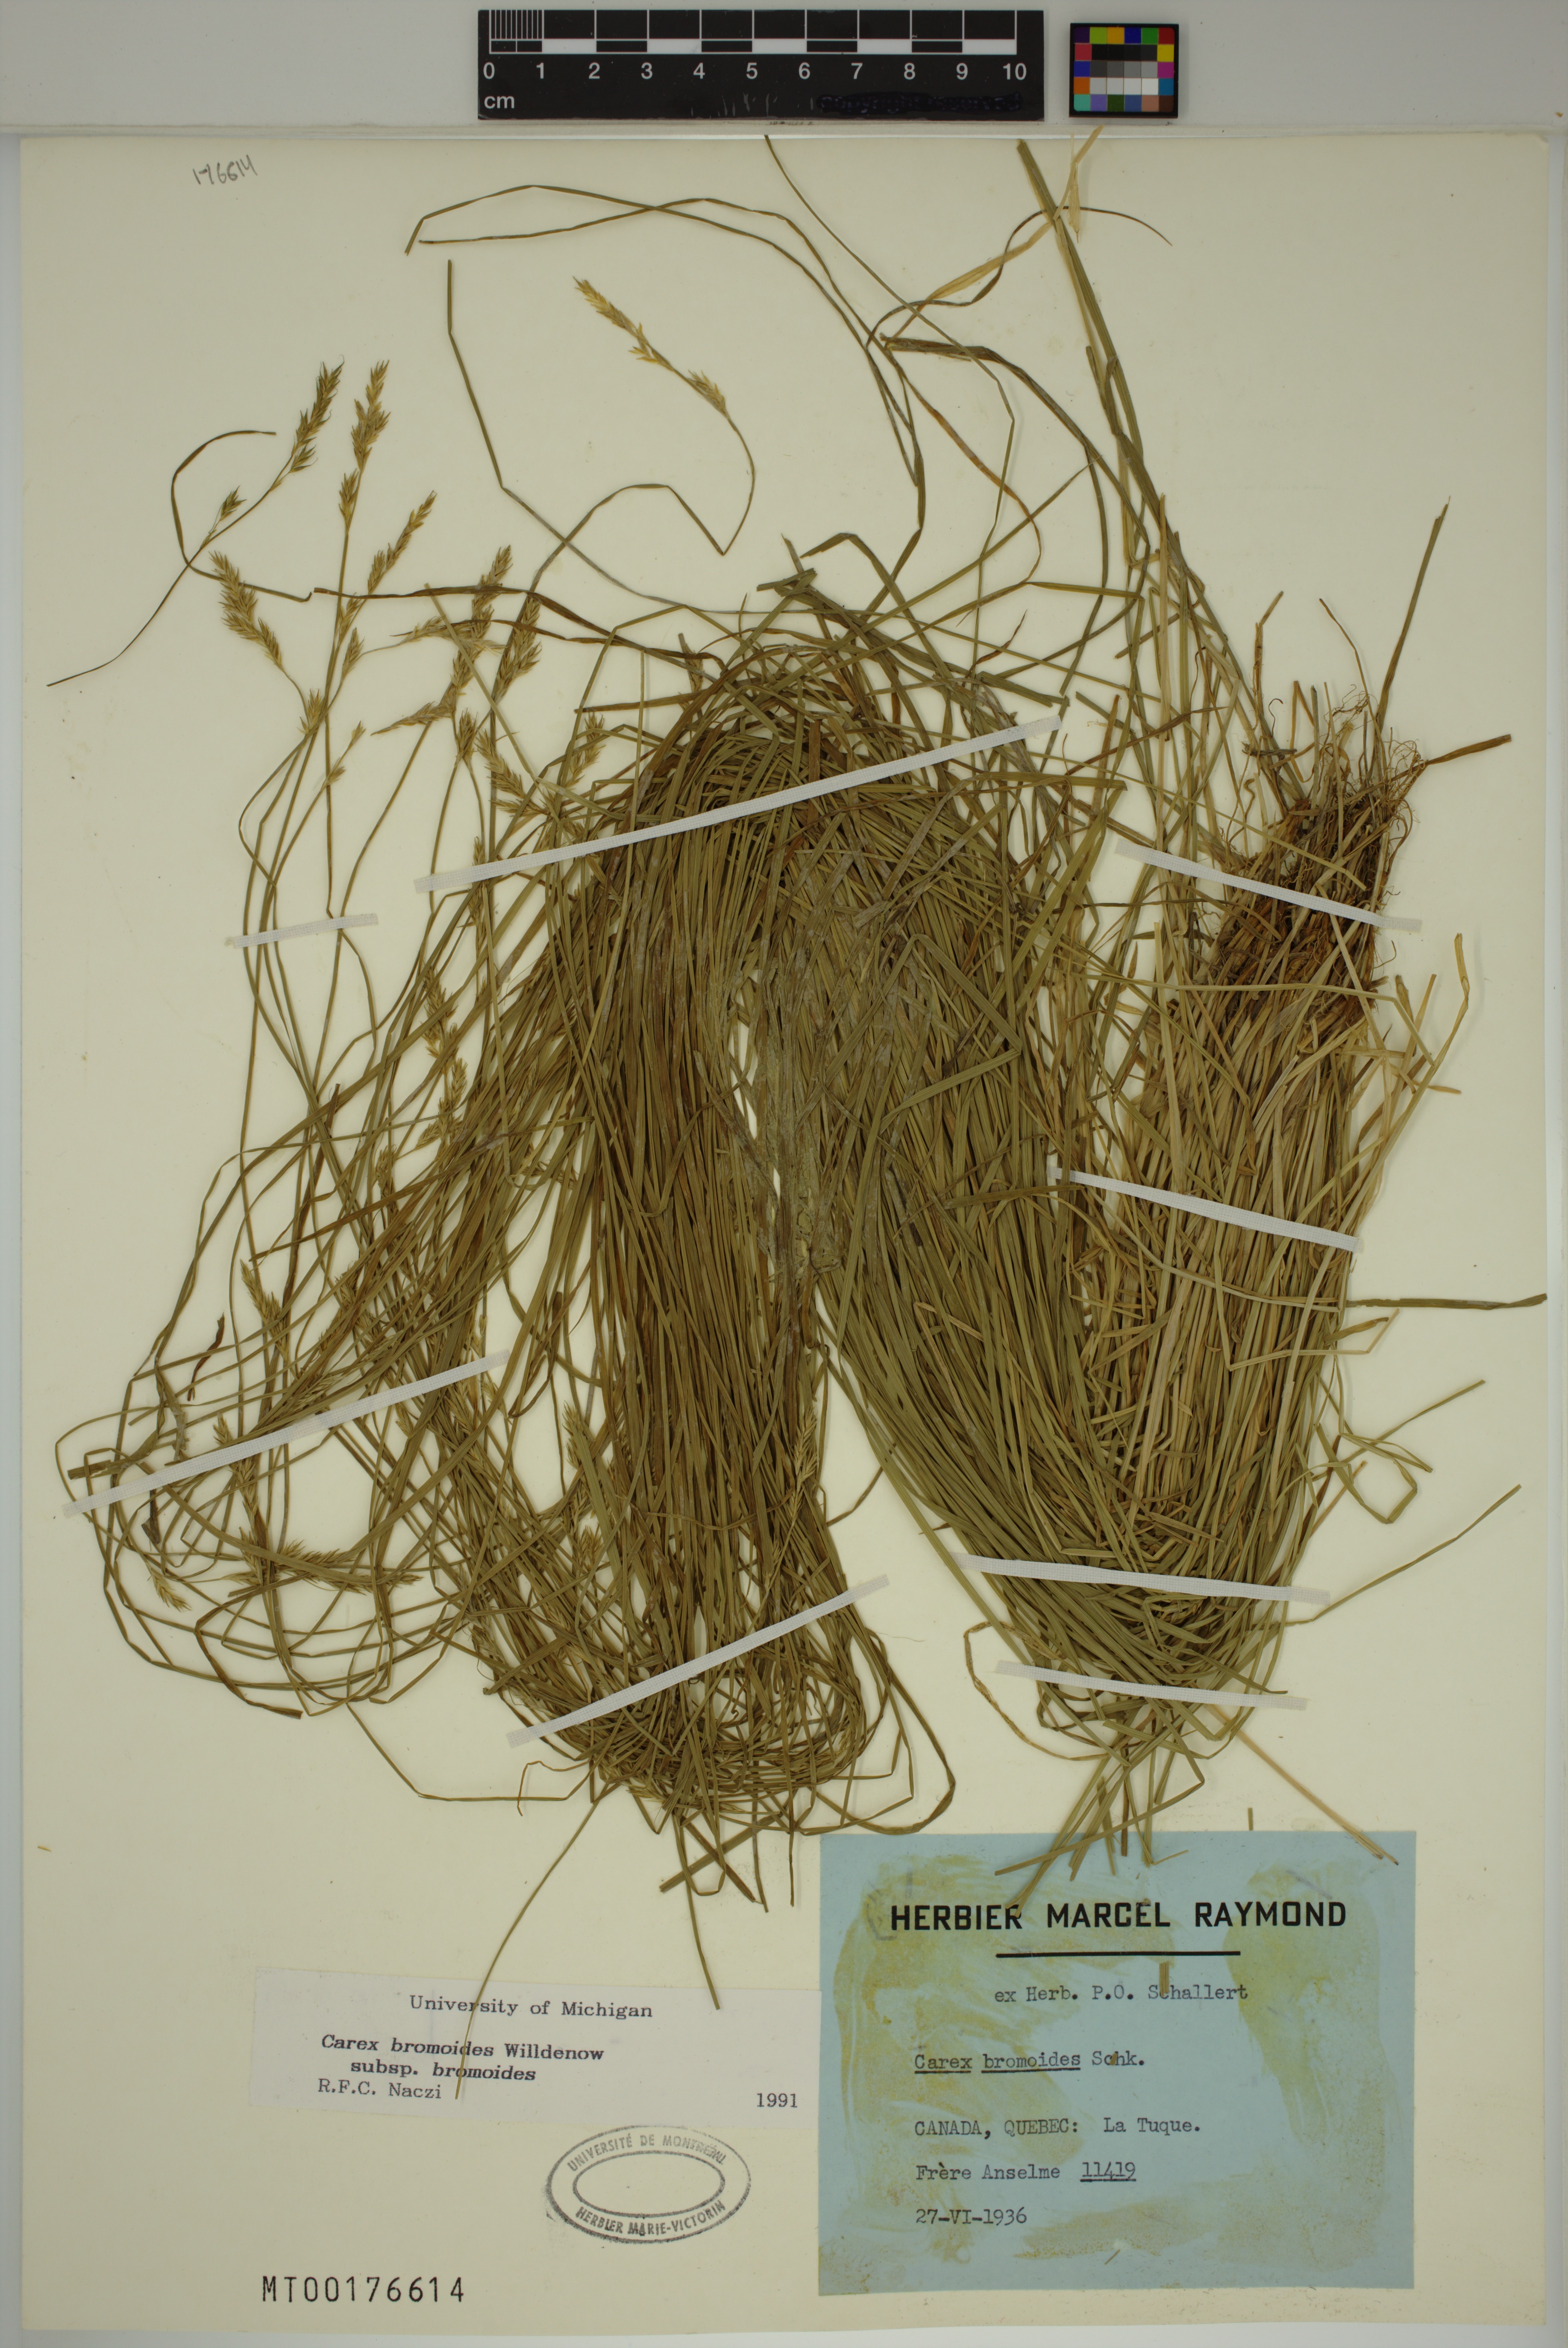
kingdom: Plantae
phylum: Tracheophyta
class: Liliopsida
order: Poales
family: Cyperaceae
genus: Carex
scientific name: Carex bromoides
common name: Brome hummock sedge
